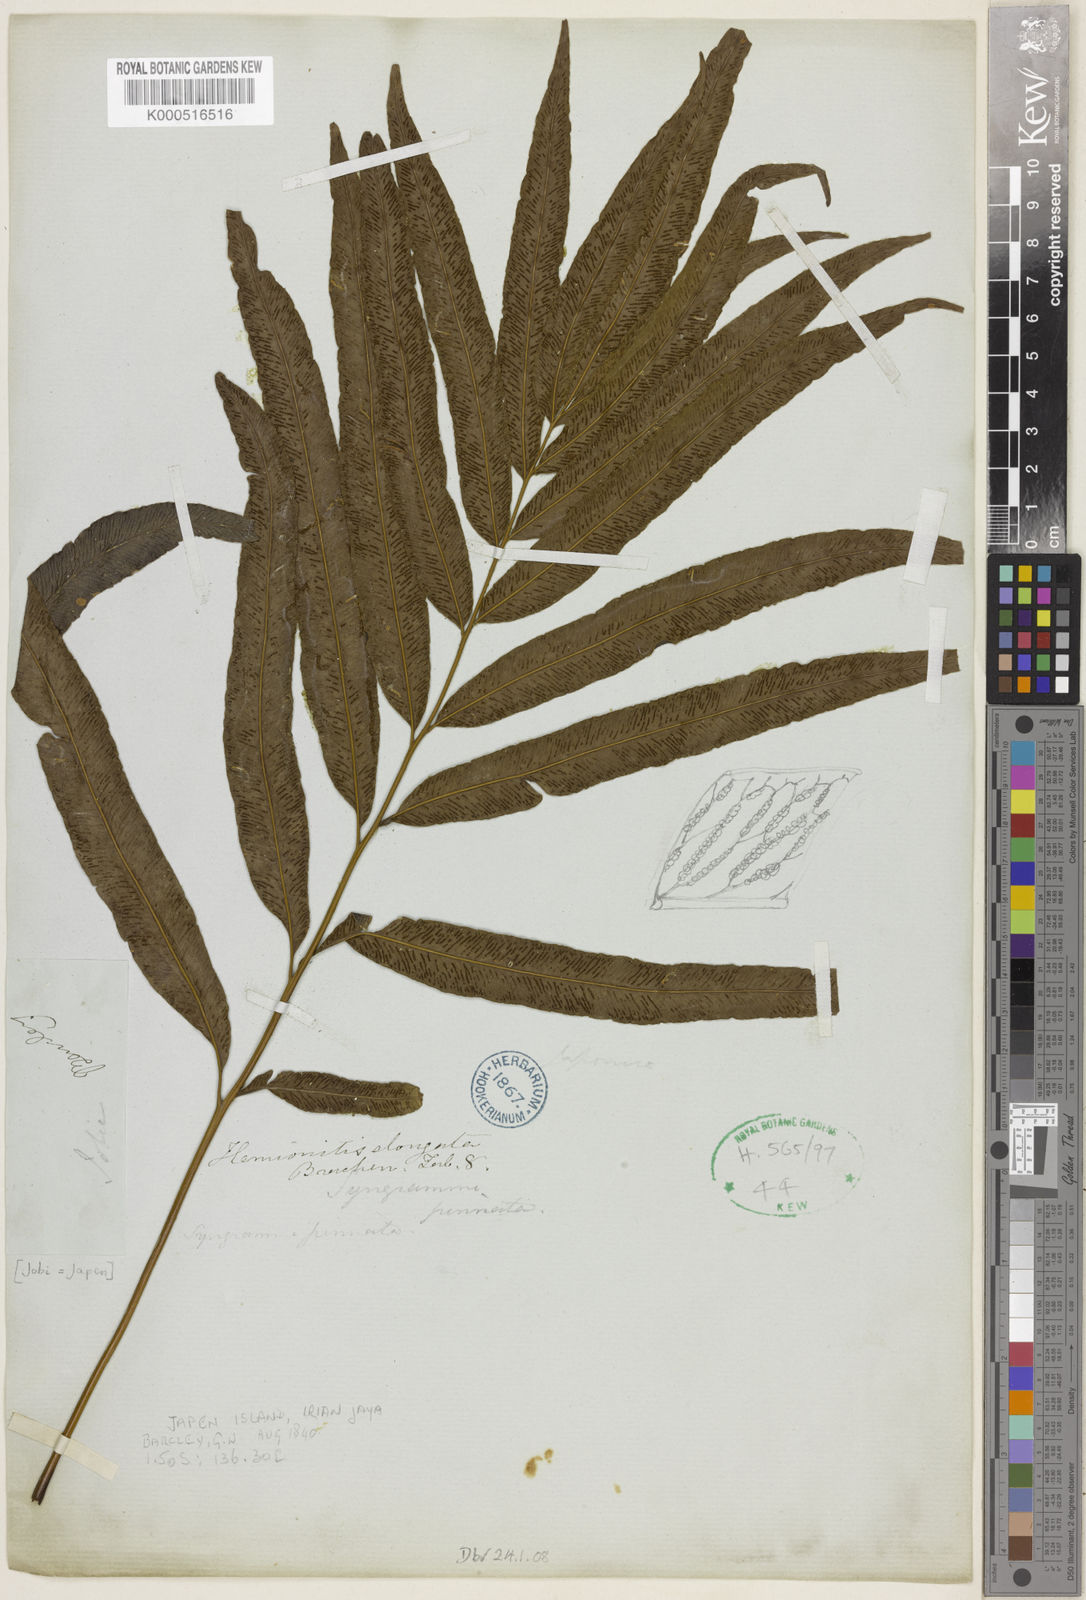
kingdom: Plantae
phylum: Tracheophyta
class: Polypodiopsida
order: Polypodiales
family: Pteridaceae
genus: Taenitis
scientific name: Taenitis pinnata
